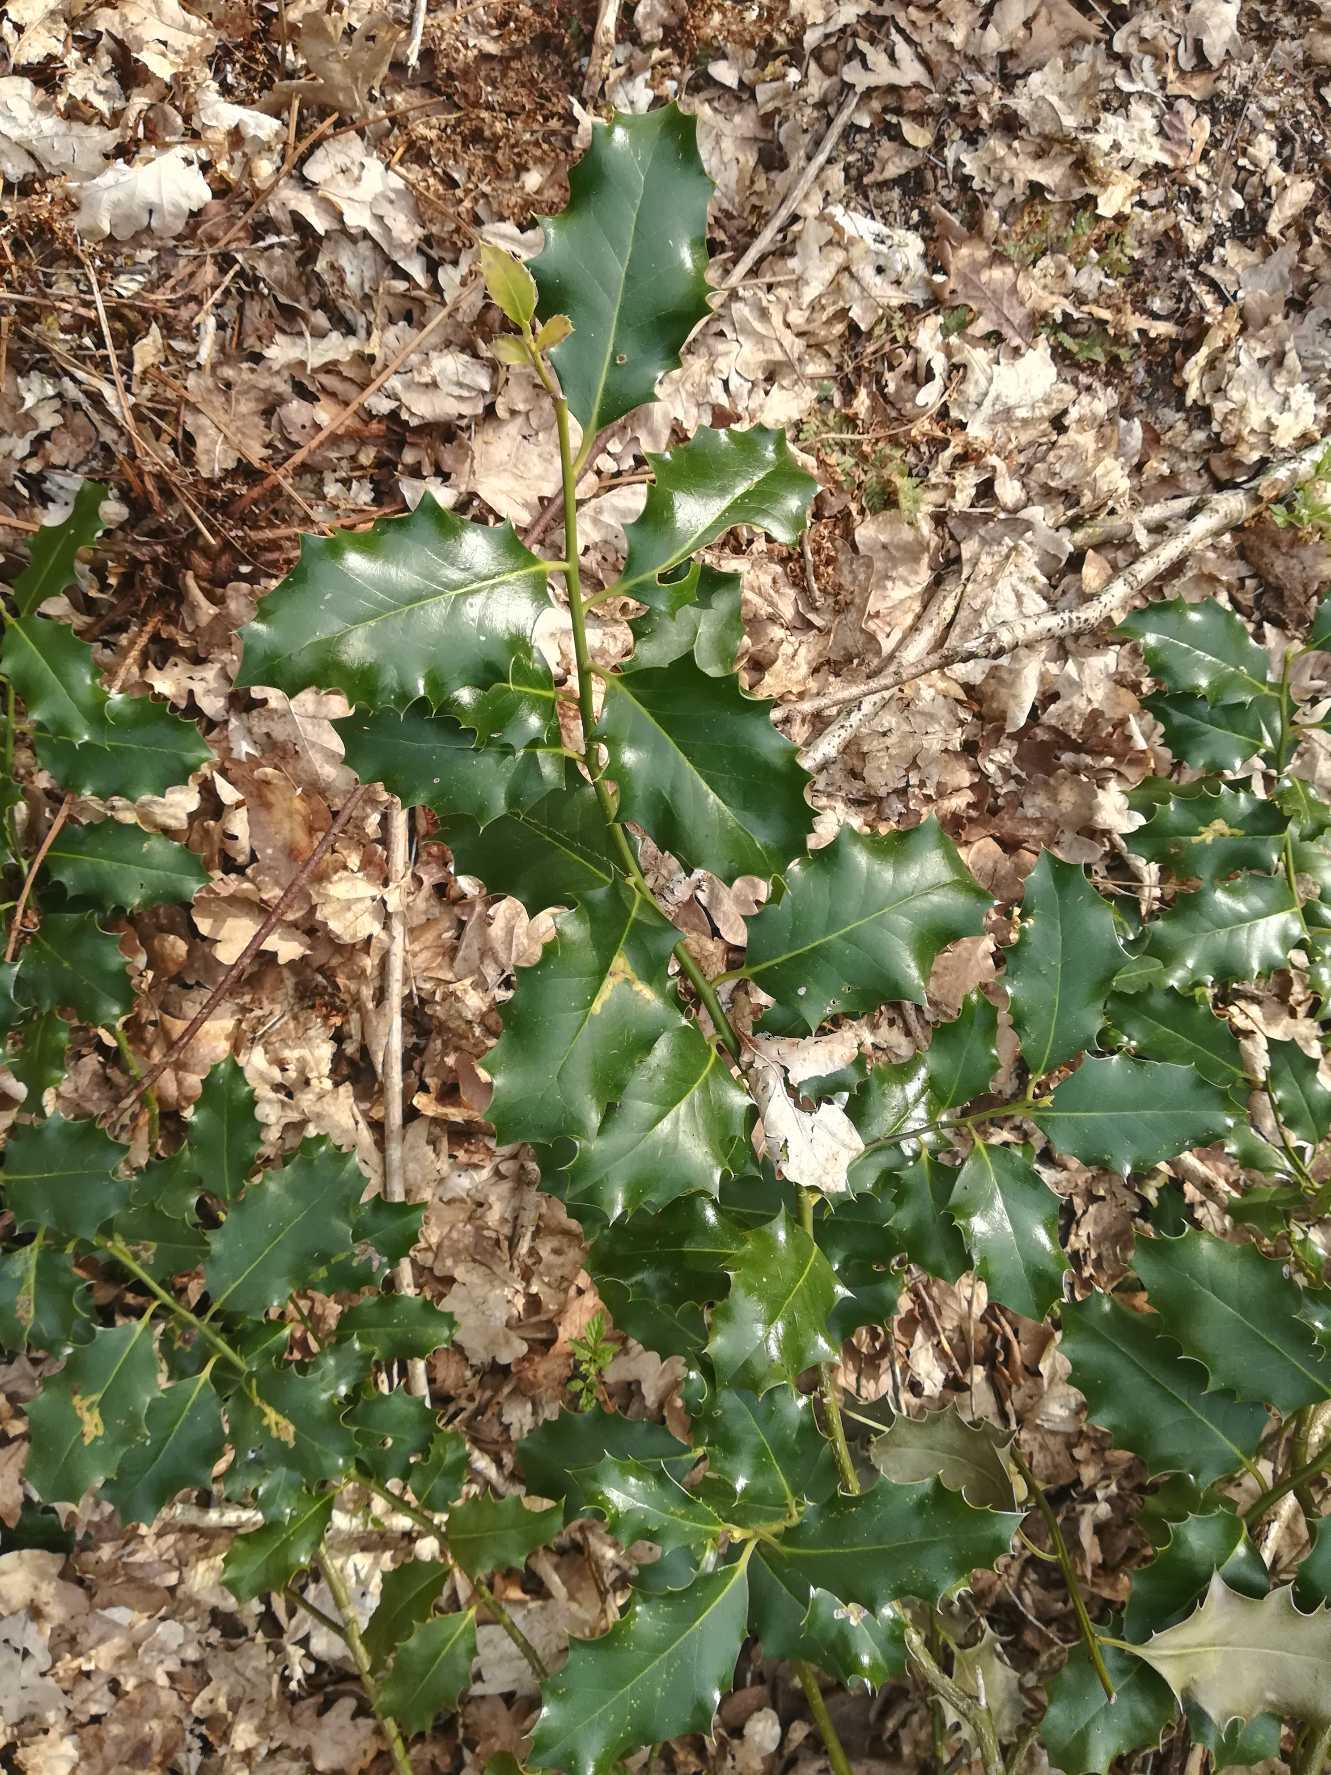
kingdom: Plantae
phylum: Tracheophyta
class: Magnoliopsida
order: Aquifoliales
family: Aquifoliaceae
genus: Ilex
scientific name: Ilex aquifolium
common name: Kristtorn
